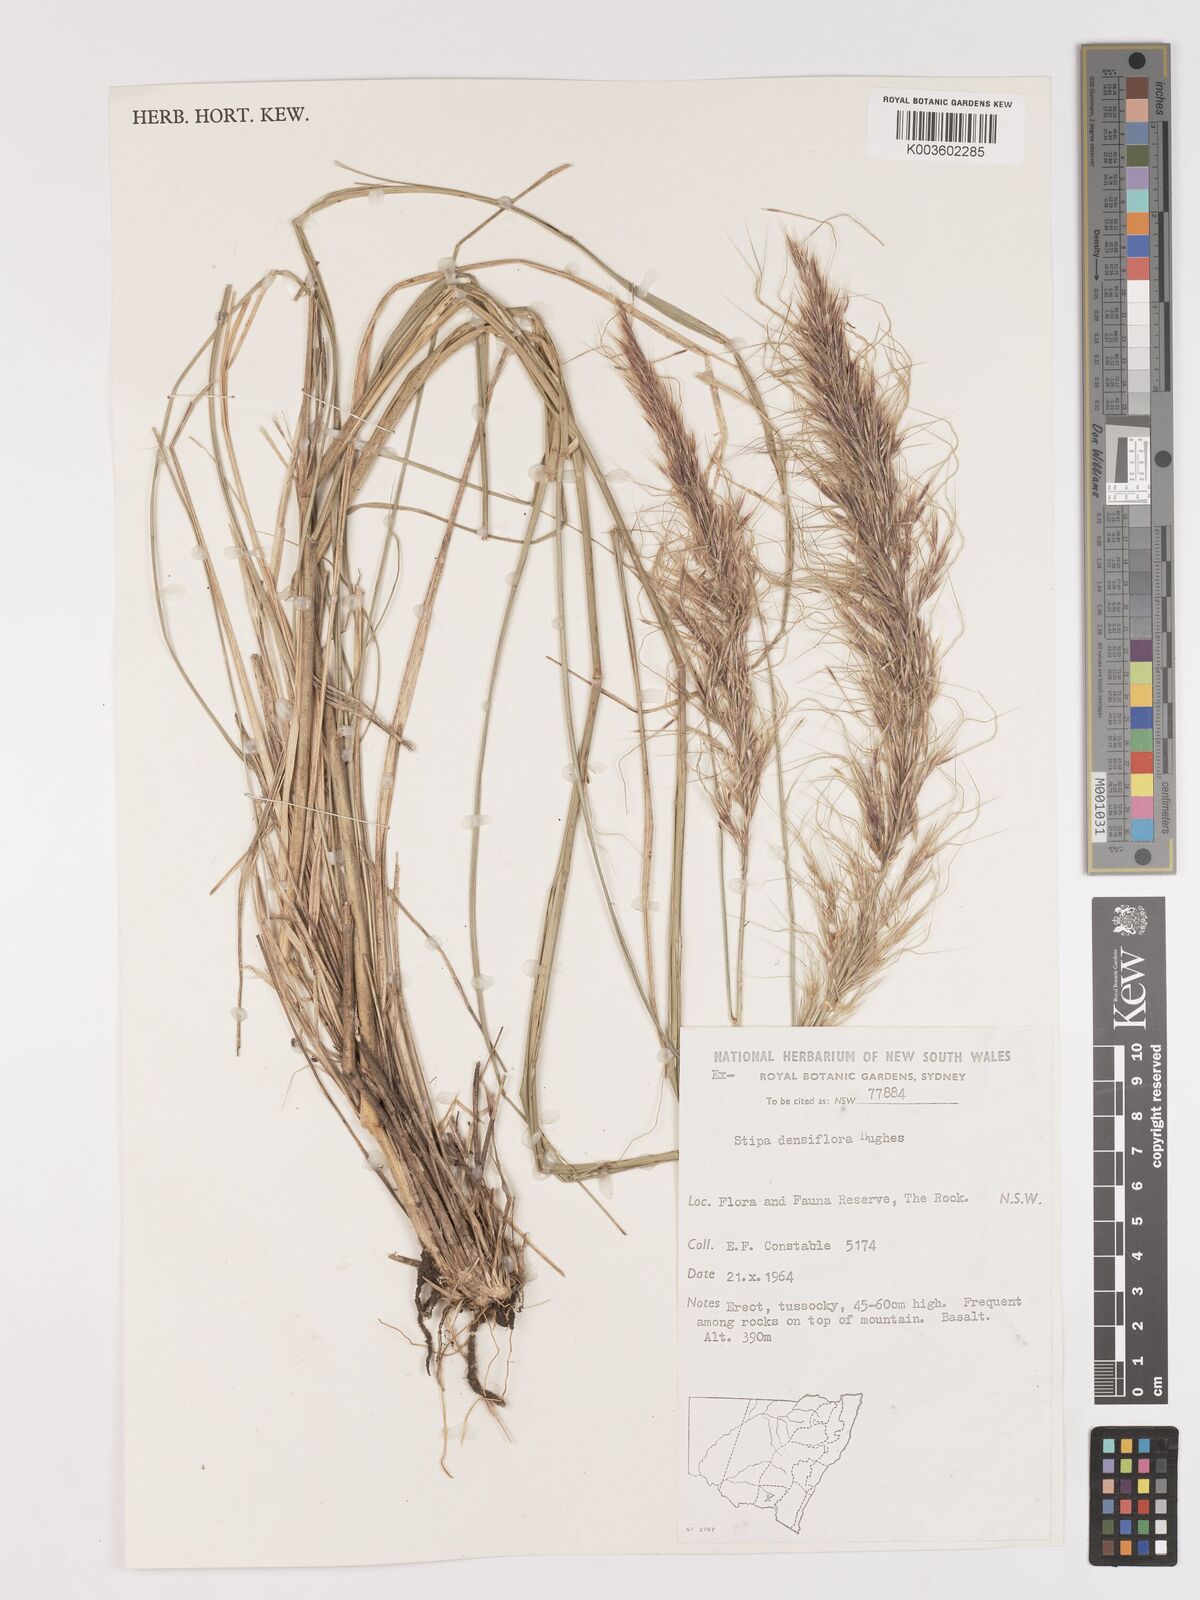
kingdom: Plantae
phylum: Tracheophyta
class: Liliopsida
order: Poales
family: Poaceae
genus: Stipa
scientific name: Stipa
